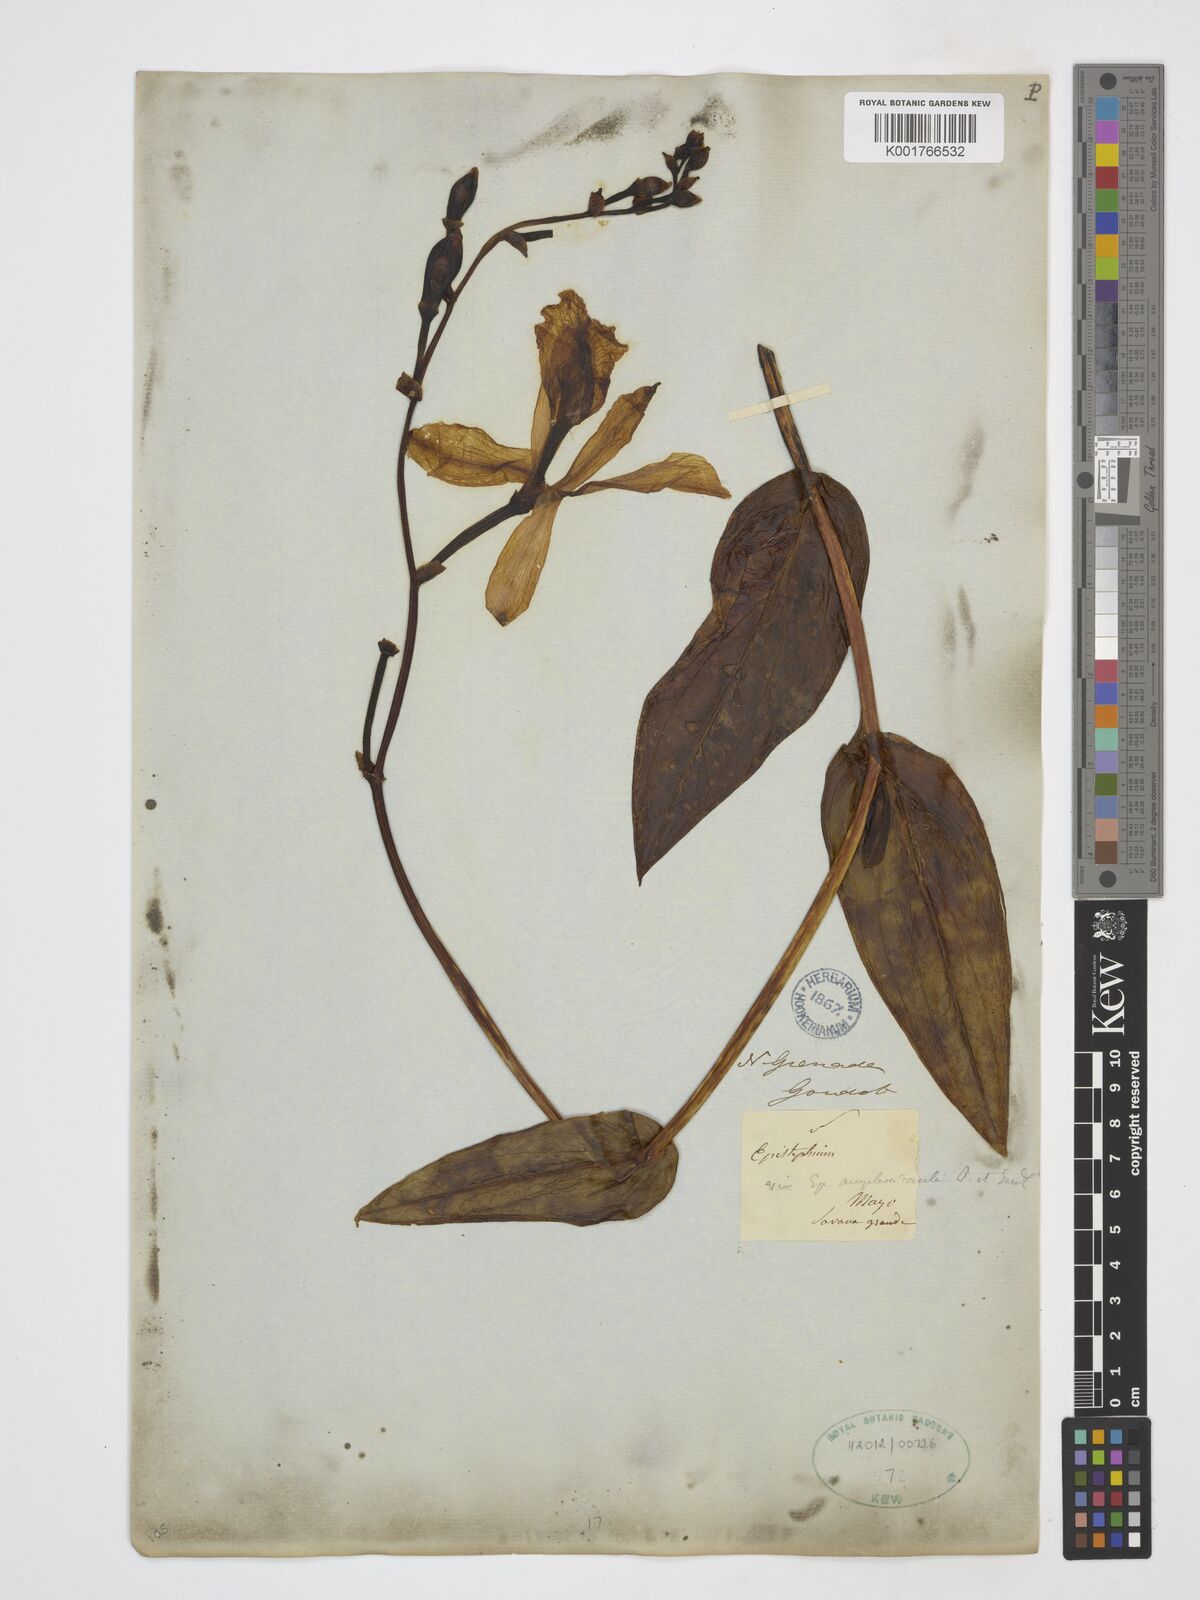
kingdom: Plantae
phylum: Tracheophyta
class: Liliopsida
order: Asparagales
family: Orchidaceae
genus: Epistephium
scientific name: Epistephium amplexicaule
